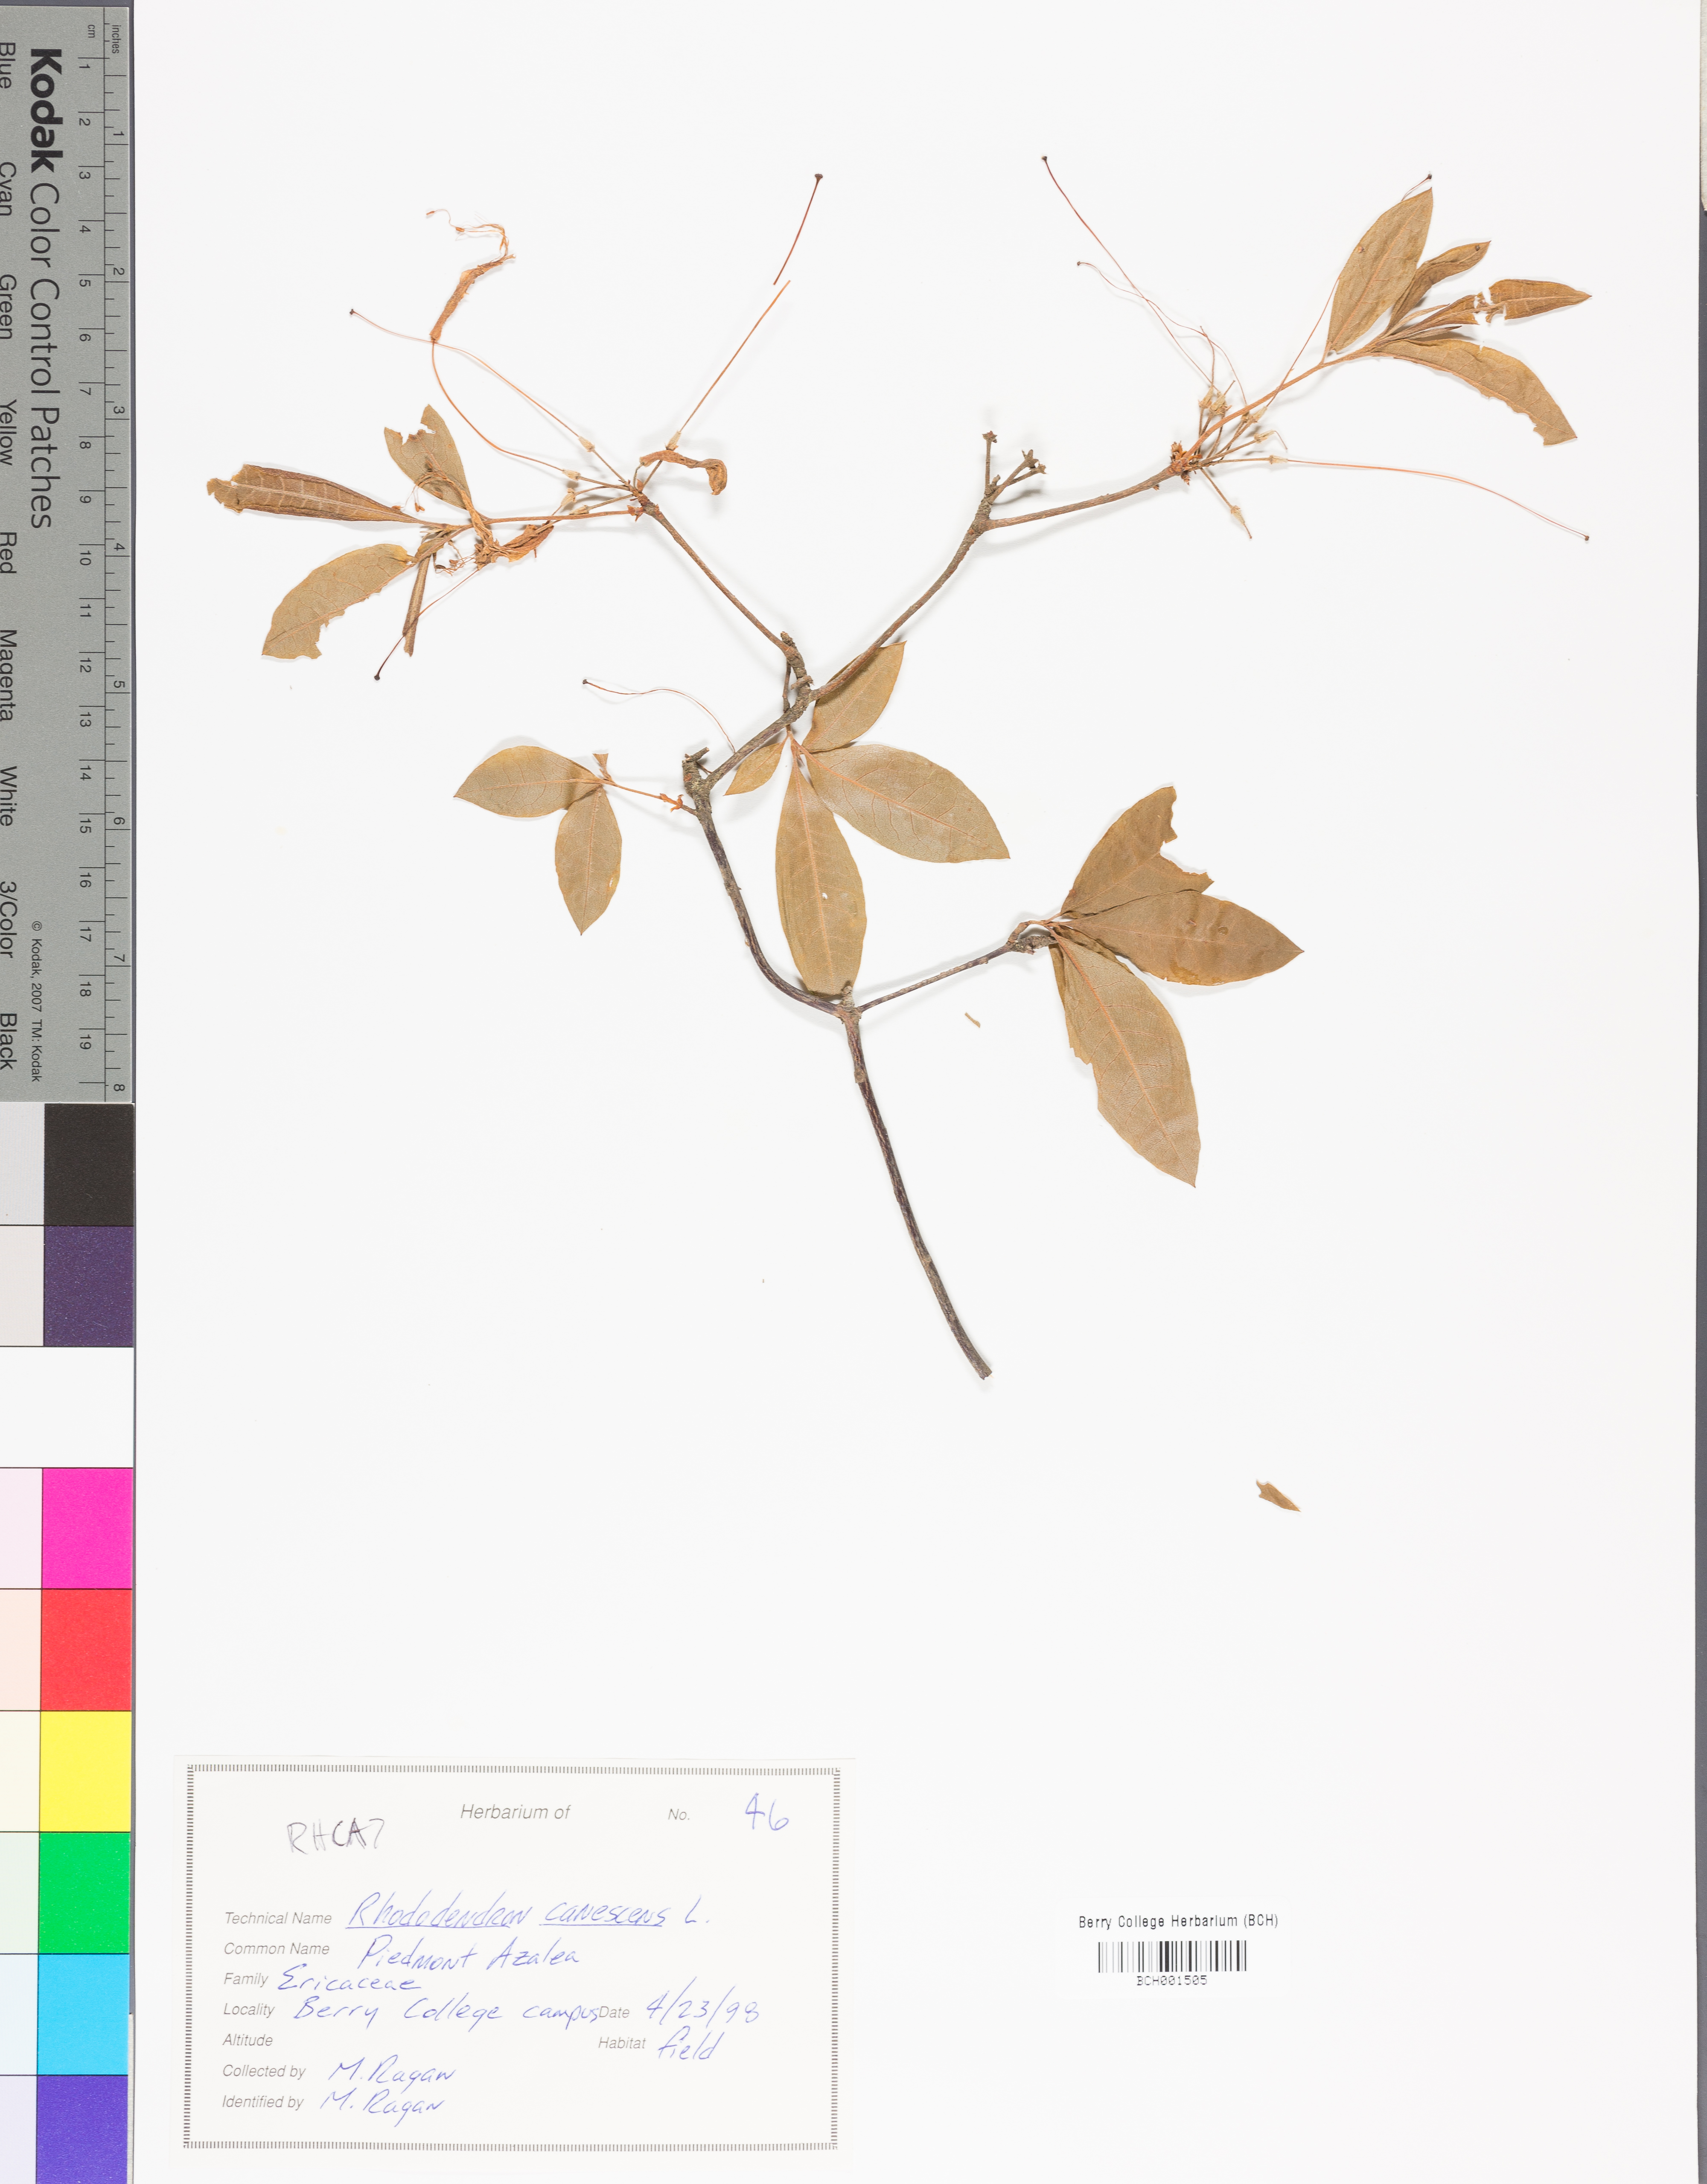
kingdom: Plantae
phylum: Tracheophyta
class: Magnoliopsida
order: Ericales
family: Ericaceae
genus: Rhododendron
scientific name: Rhododendron canescens
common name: Mountain azalea
